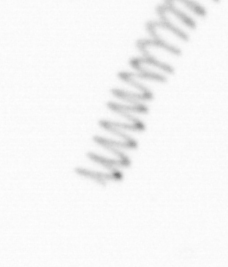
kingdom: Chromista
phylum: Ochrophyta
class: Bacillariophyceae
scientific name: Bacillariophyceae
